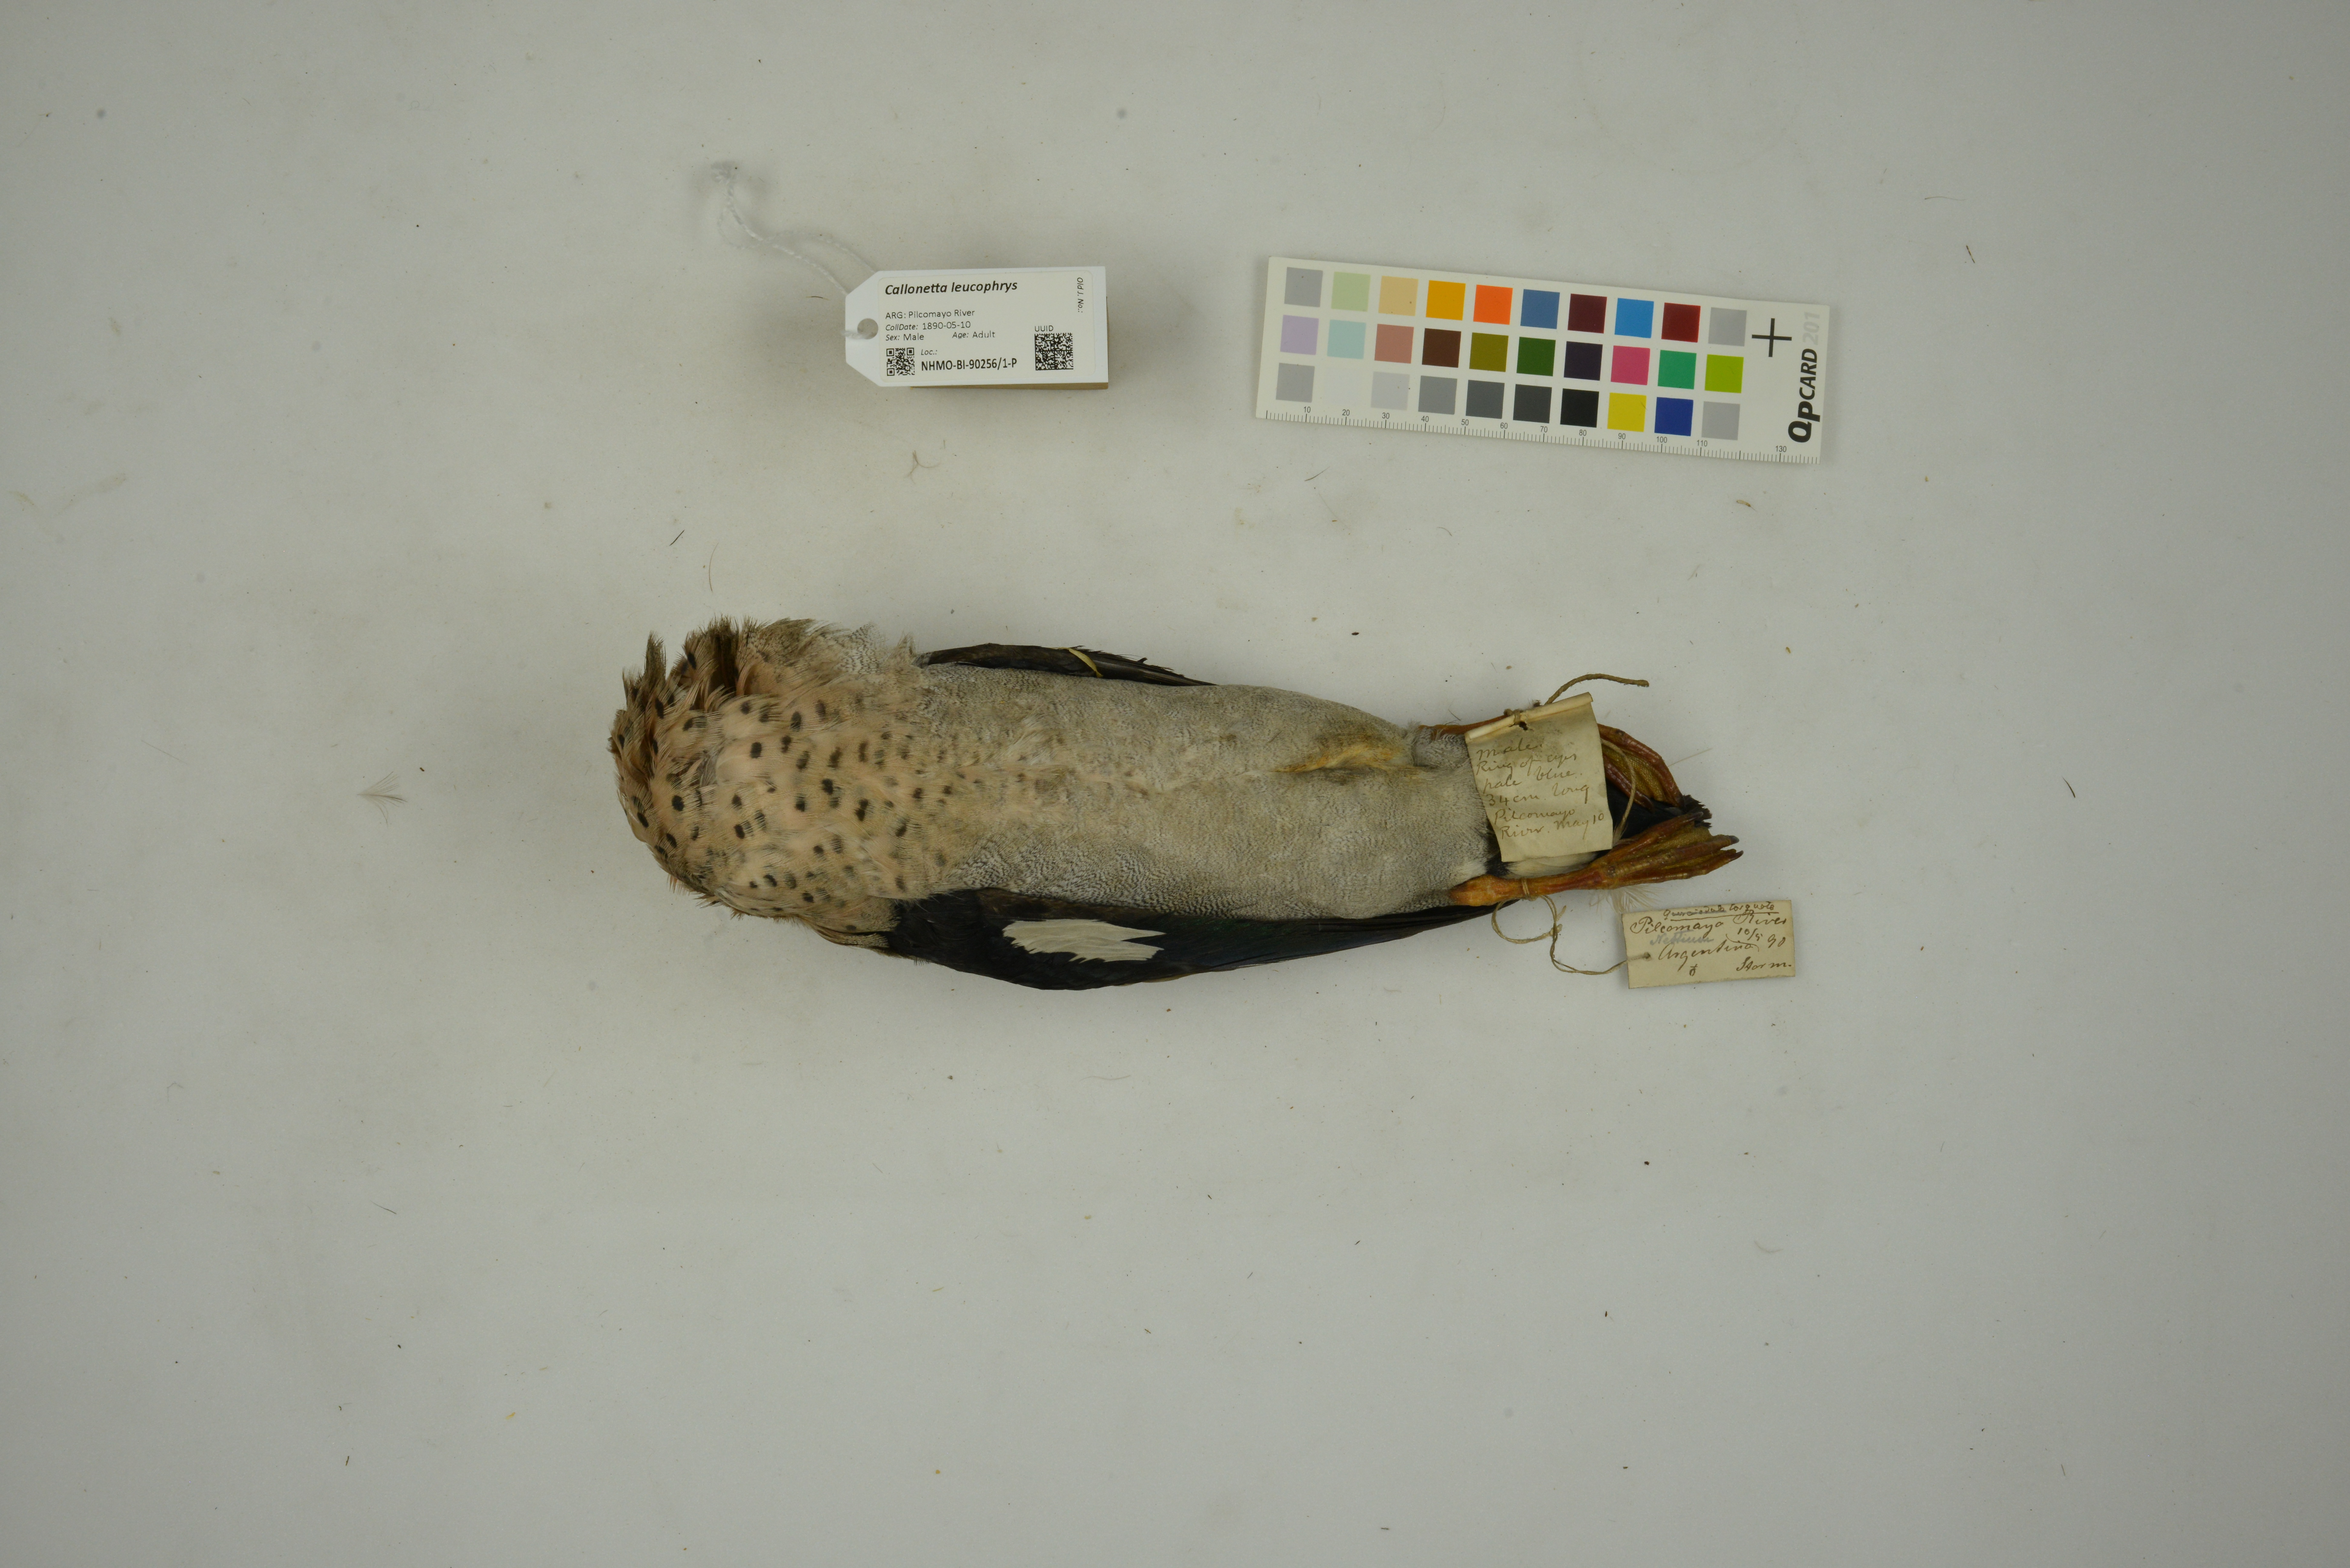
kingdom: Animalia
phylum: Chordata
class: Aves
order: Anseriformes
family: Anatidae
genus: Callonetta
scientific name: Callonetta leucophrys
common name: Ringed teal
